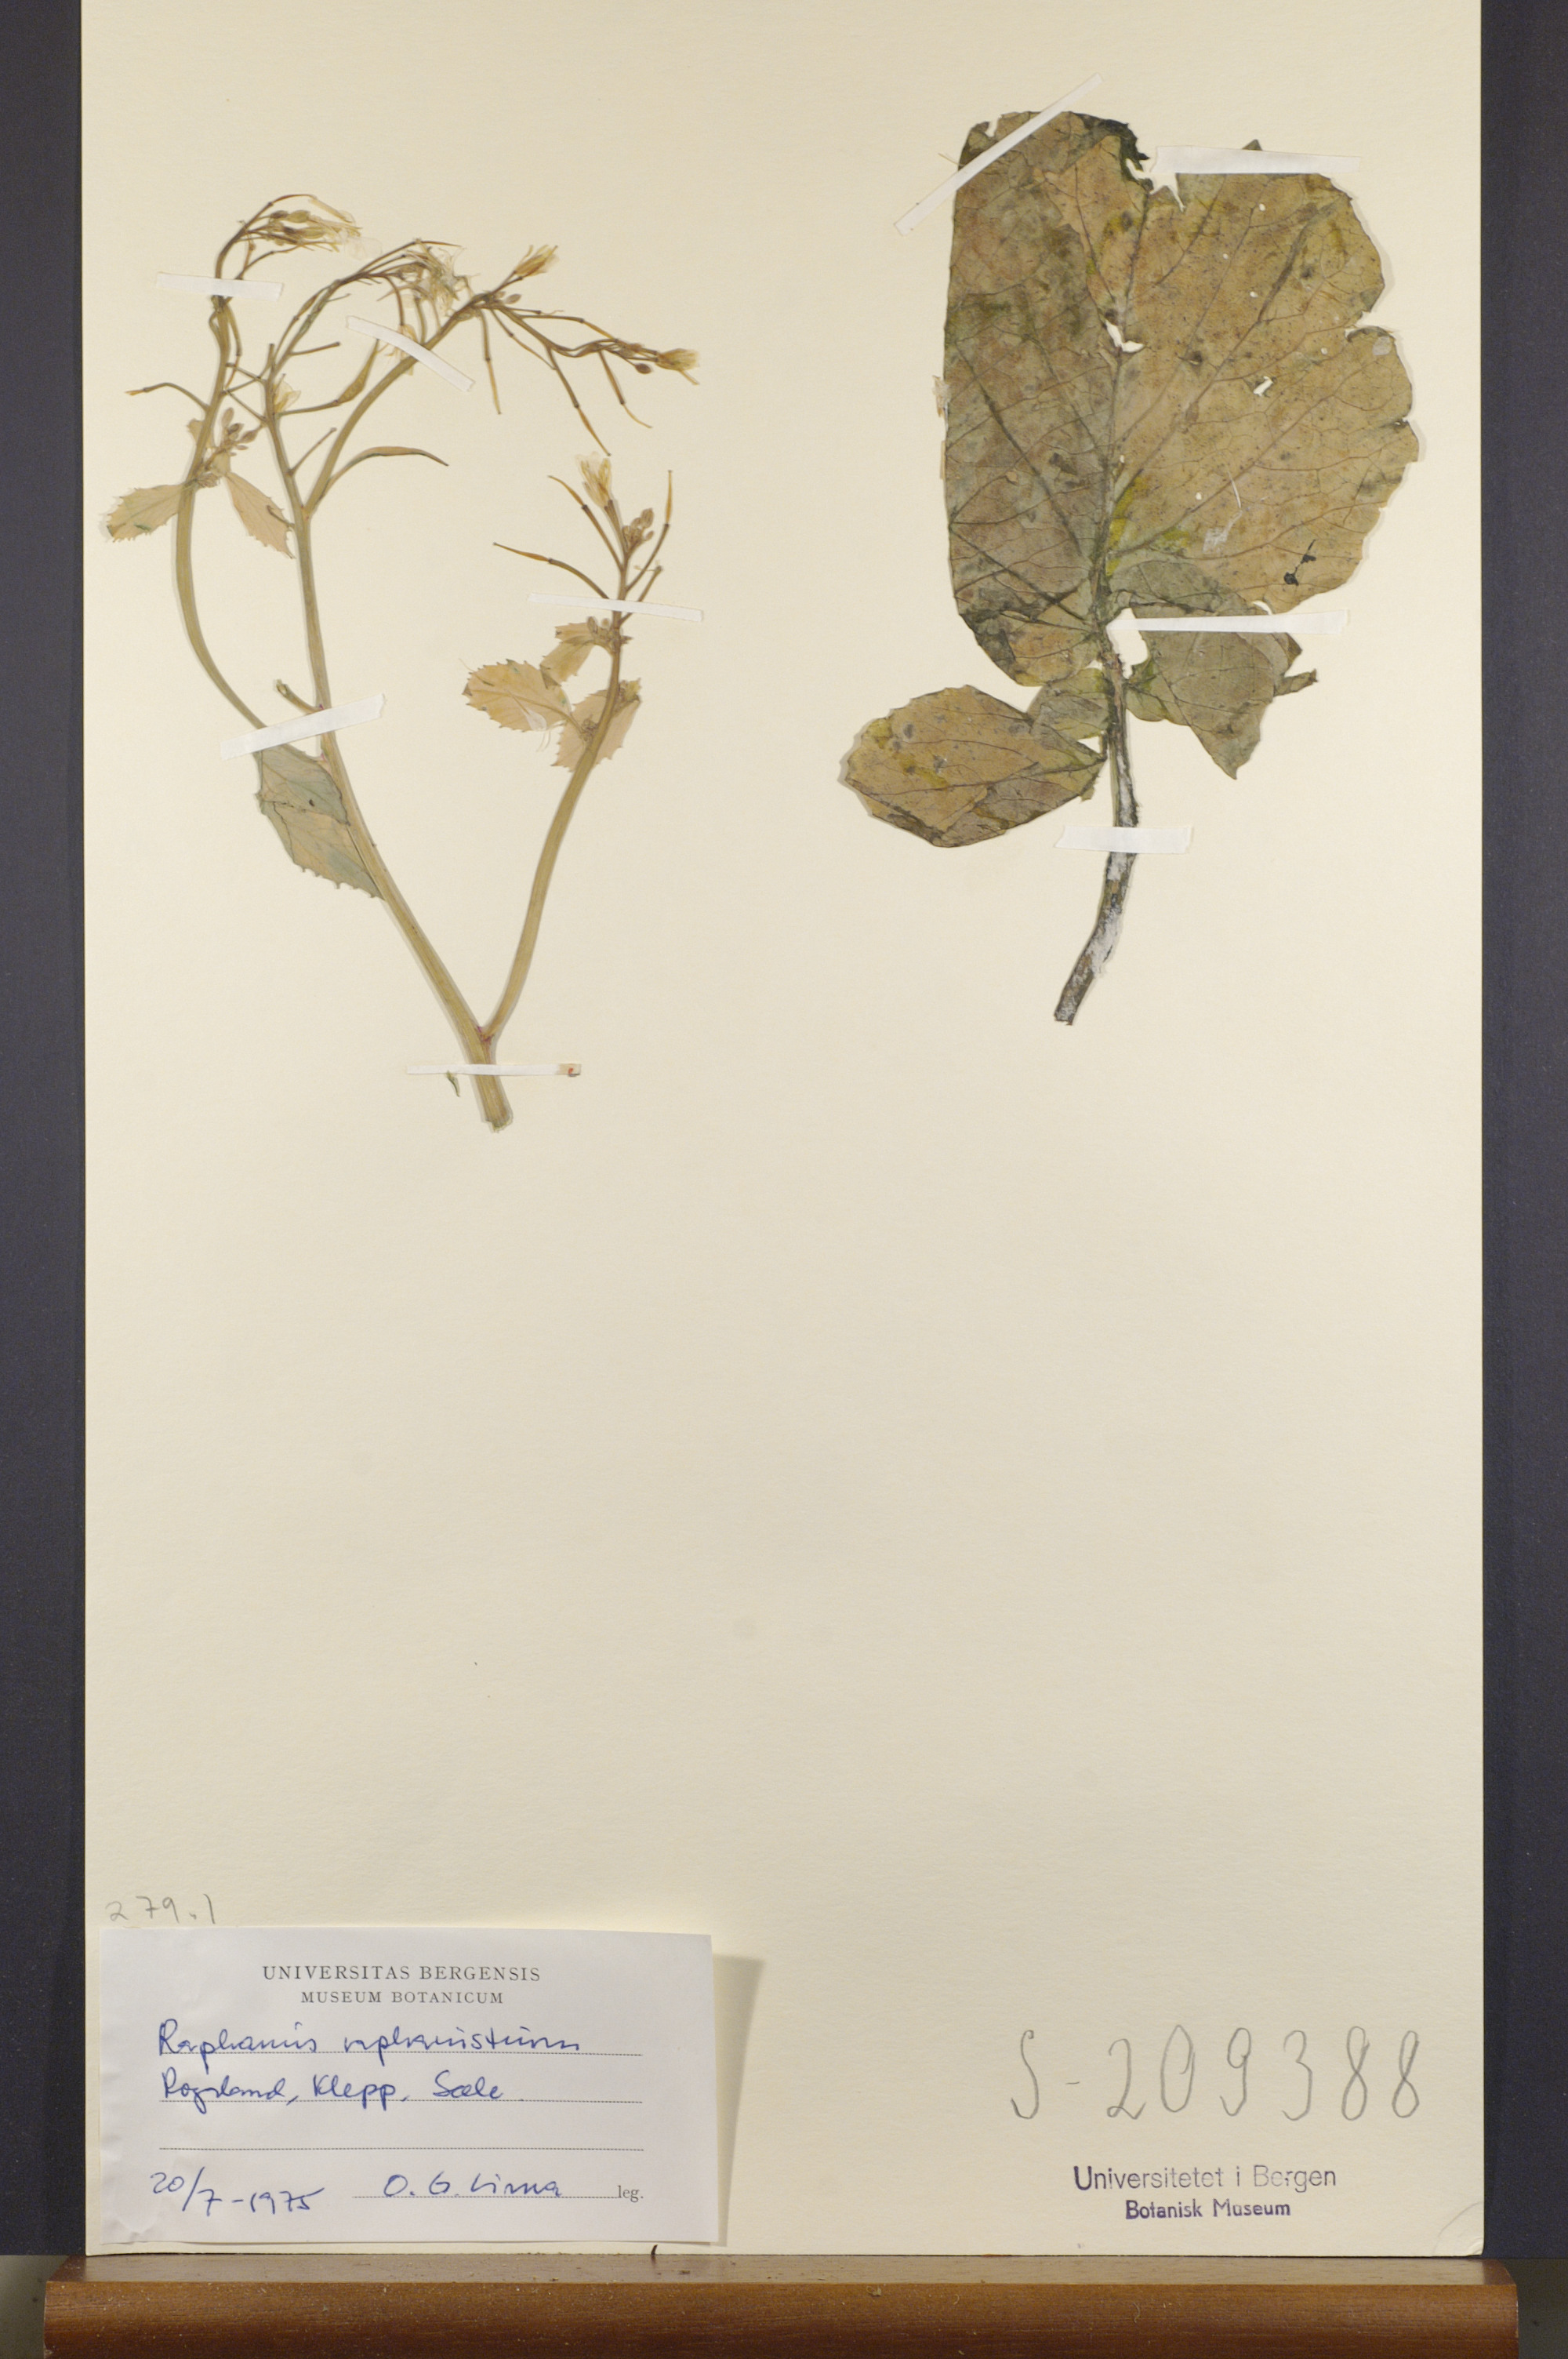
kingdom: Plantae
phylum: Tracheophyta
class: Magnoliopsida
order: Brassicales
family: Brassicaceae
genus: Raphanus
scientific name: Raphanus raphanistrum
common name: Wild radish
